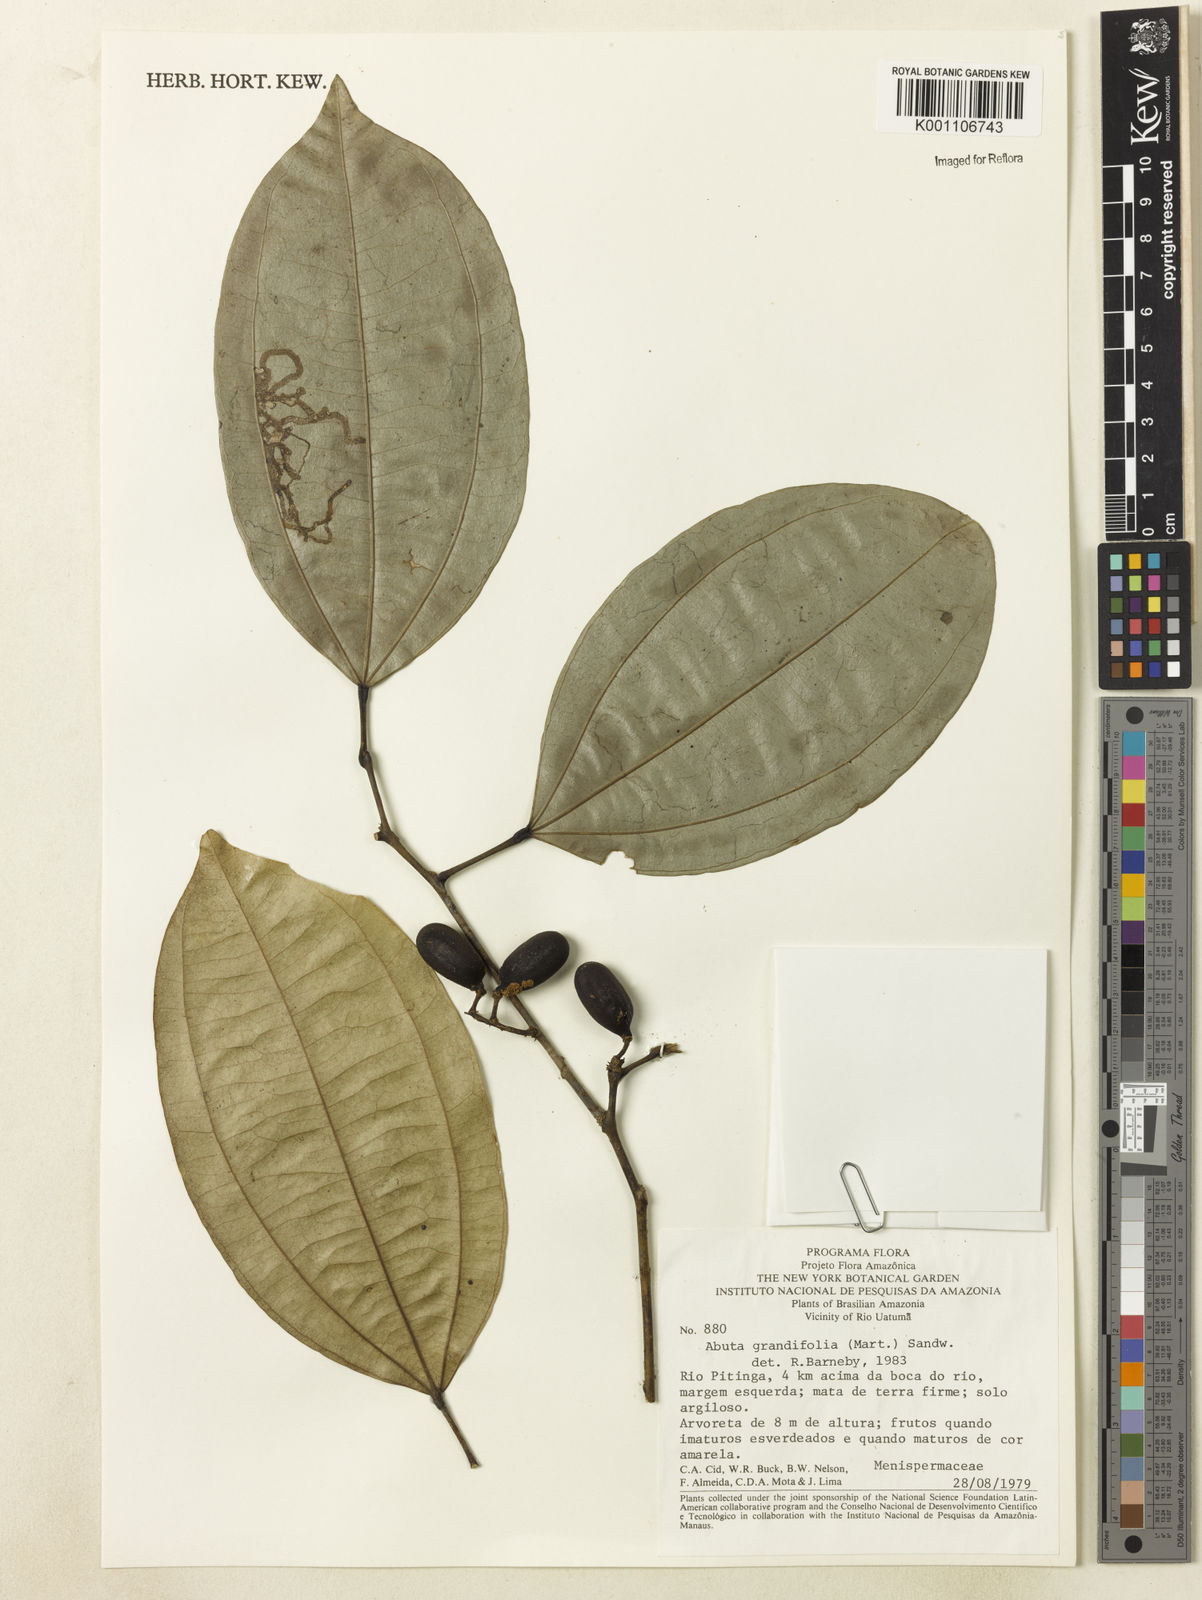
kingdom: Plantae
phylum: Tracheophyta
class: Magnoliopsida
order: Ranunculales
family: Menispermaceae
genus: Abuta
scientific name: Abuta grandifolia
